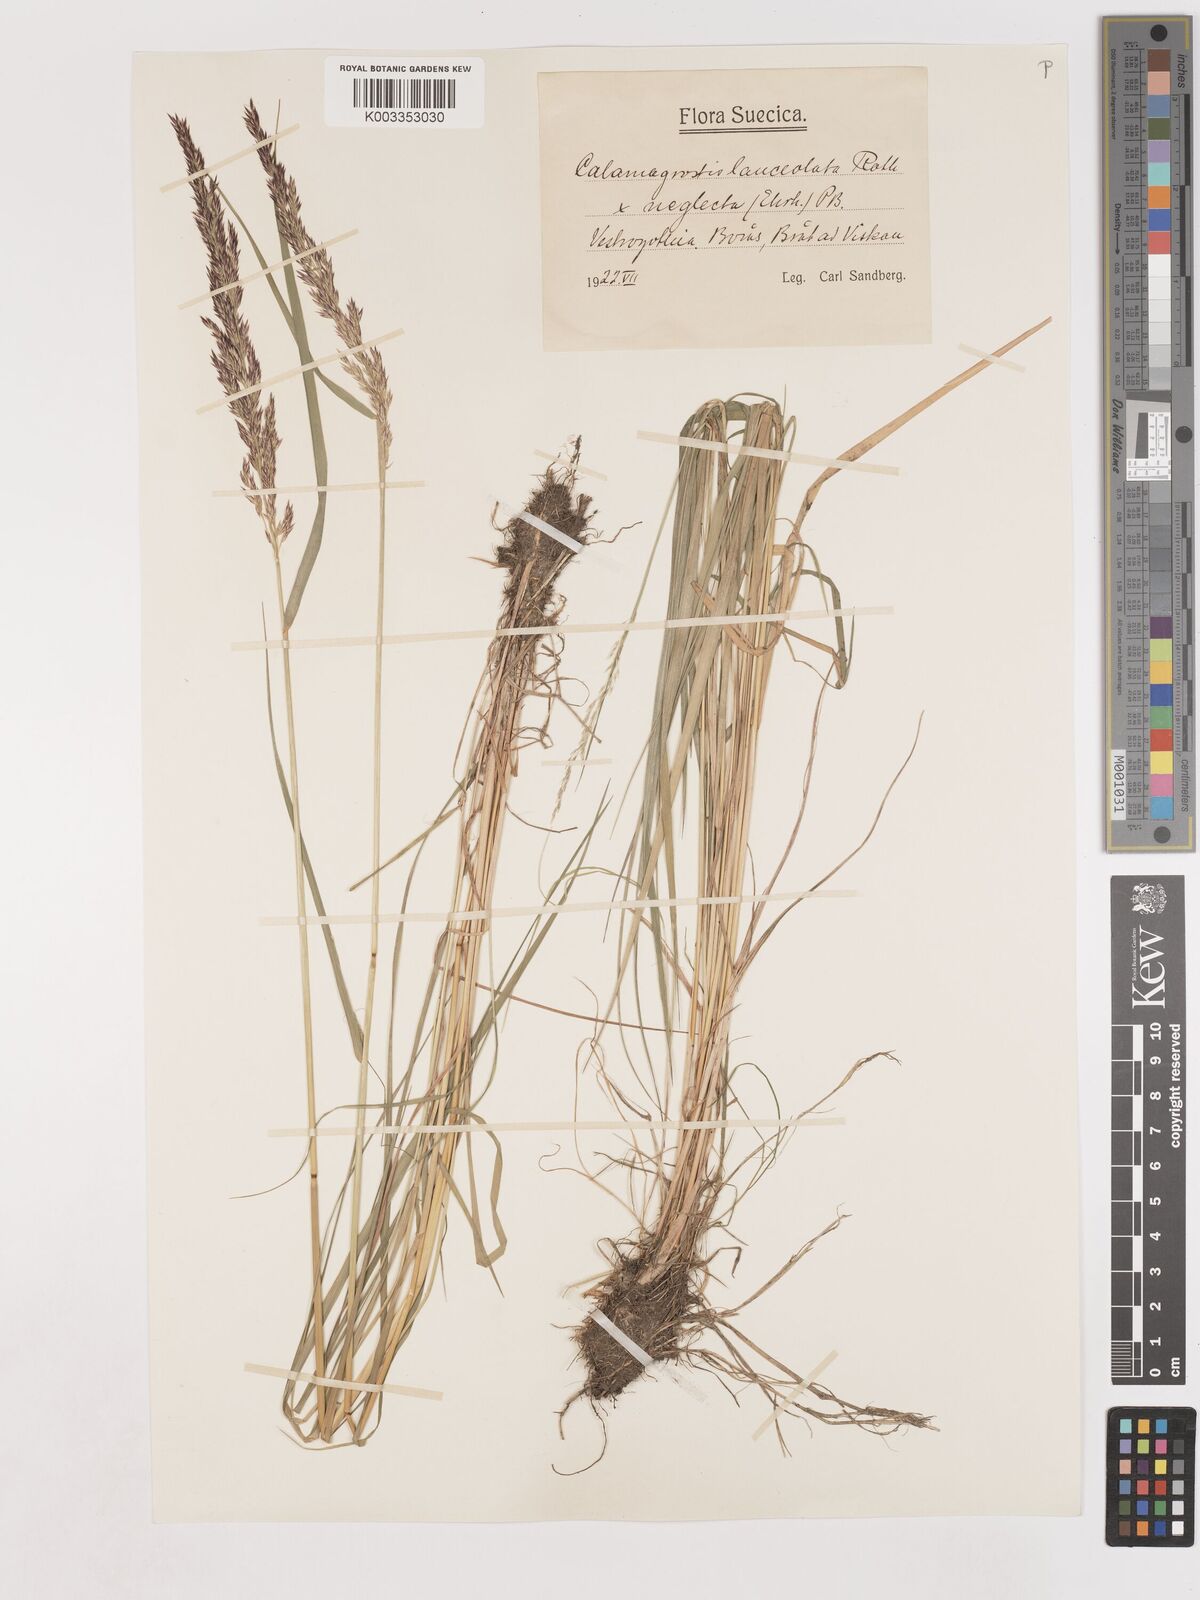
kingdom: Plantae
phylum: Tracheophyta
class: Liliopsida
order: Poales
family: Poaceae
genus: Calamagrostis
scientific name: Calamagrostis canescens
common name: Purple small-reed
